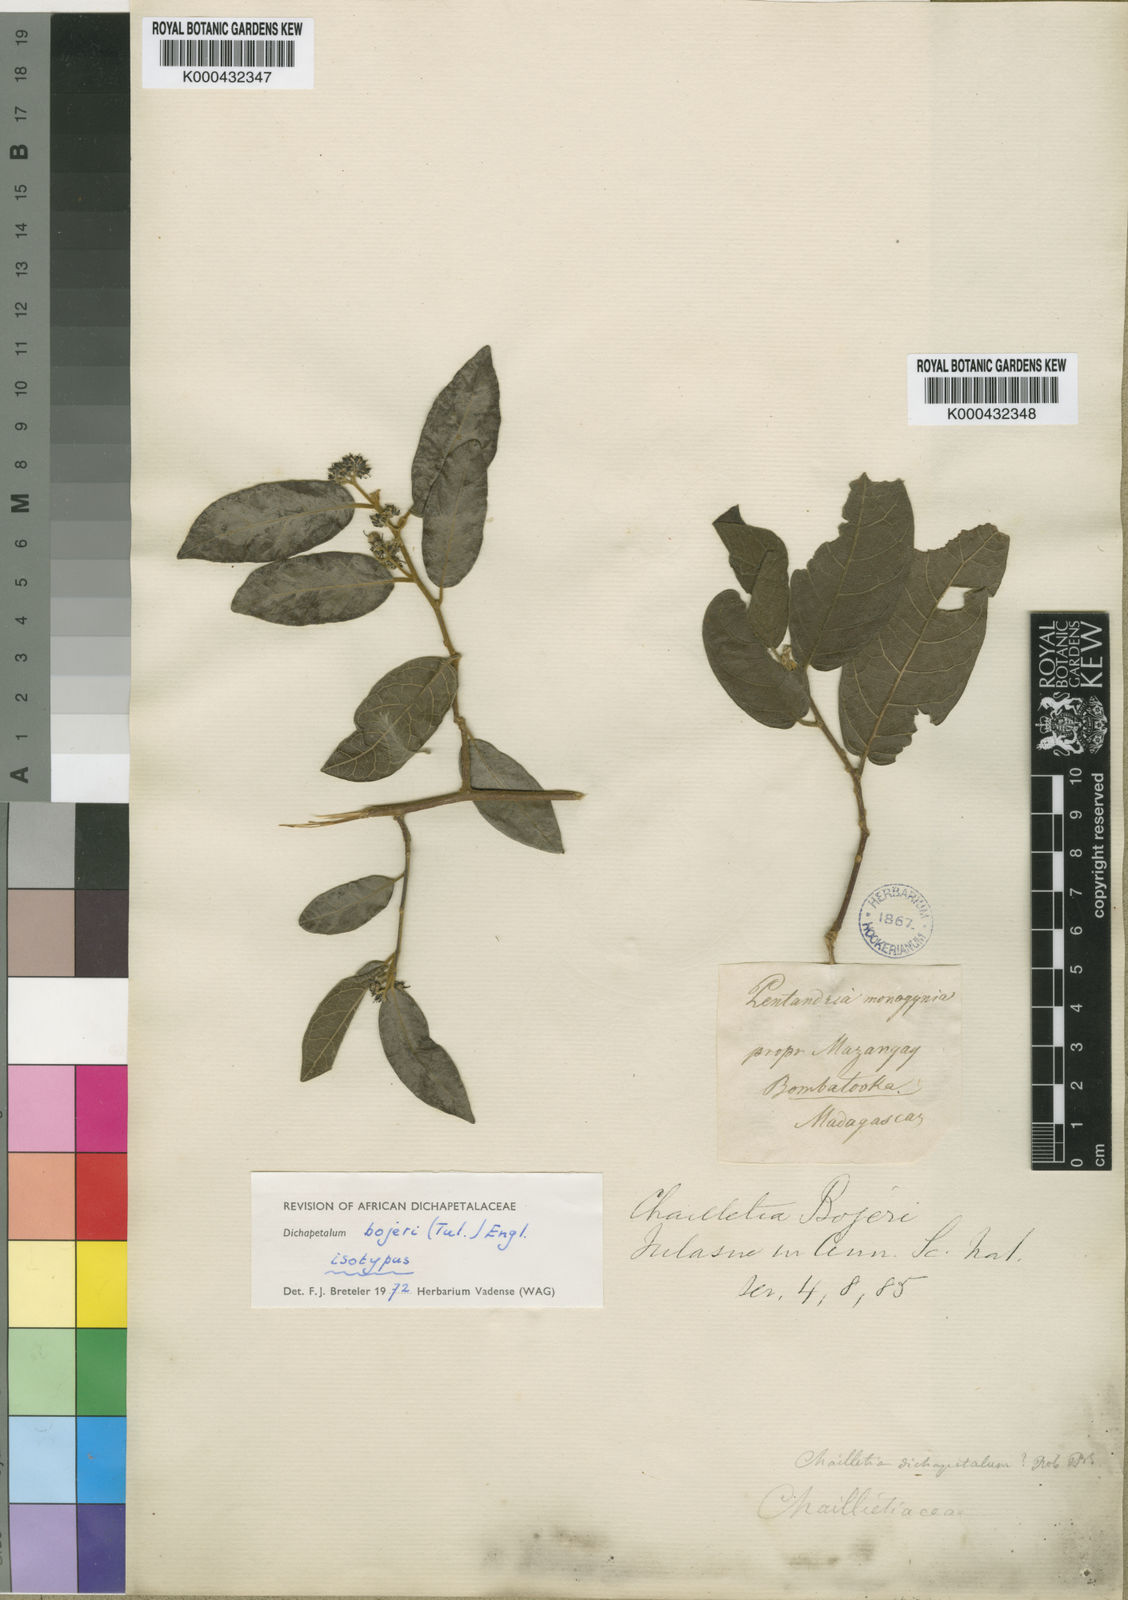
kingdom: Plantae
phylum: Tracheophyta
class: Magnoliopsida
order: Malpighiales
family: Dichapetalaceae
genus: Dichapetalum
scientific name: Dichapetalum bojeri
